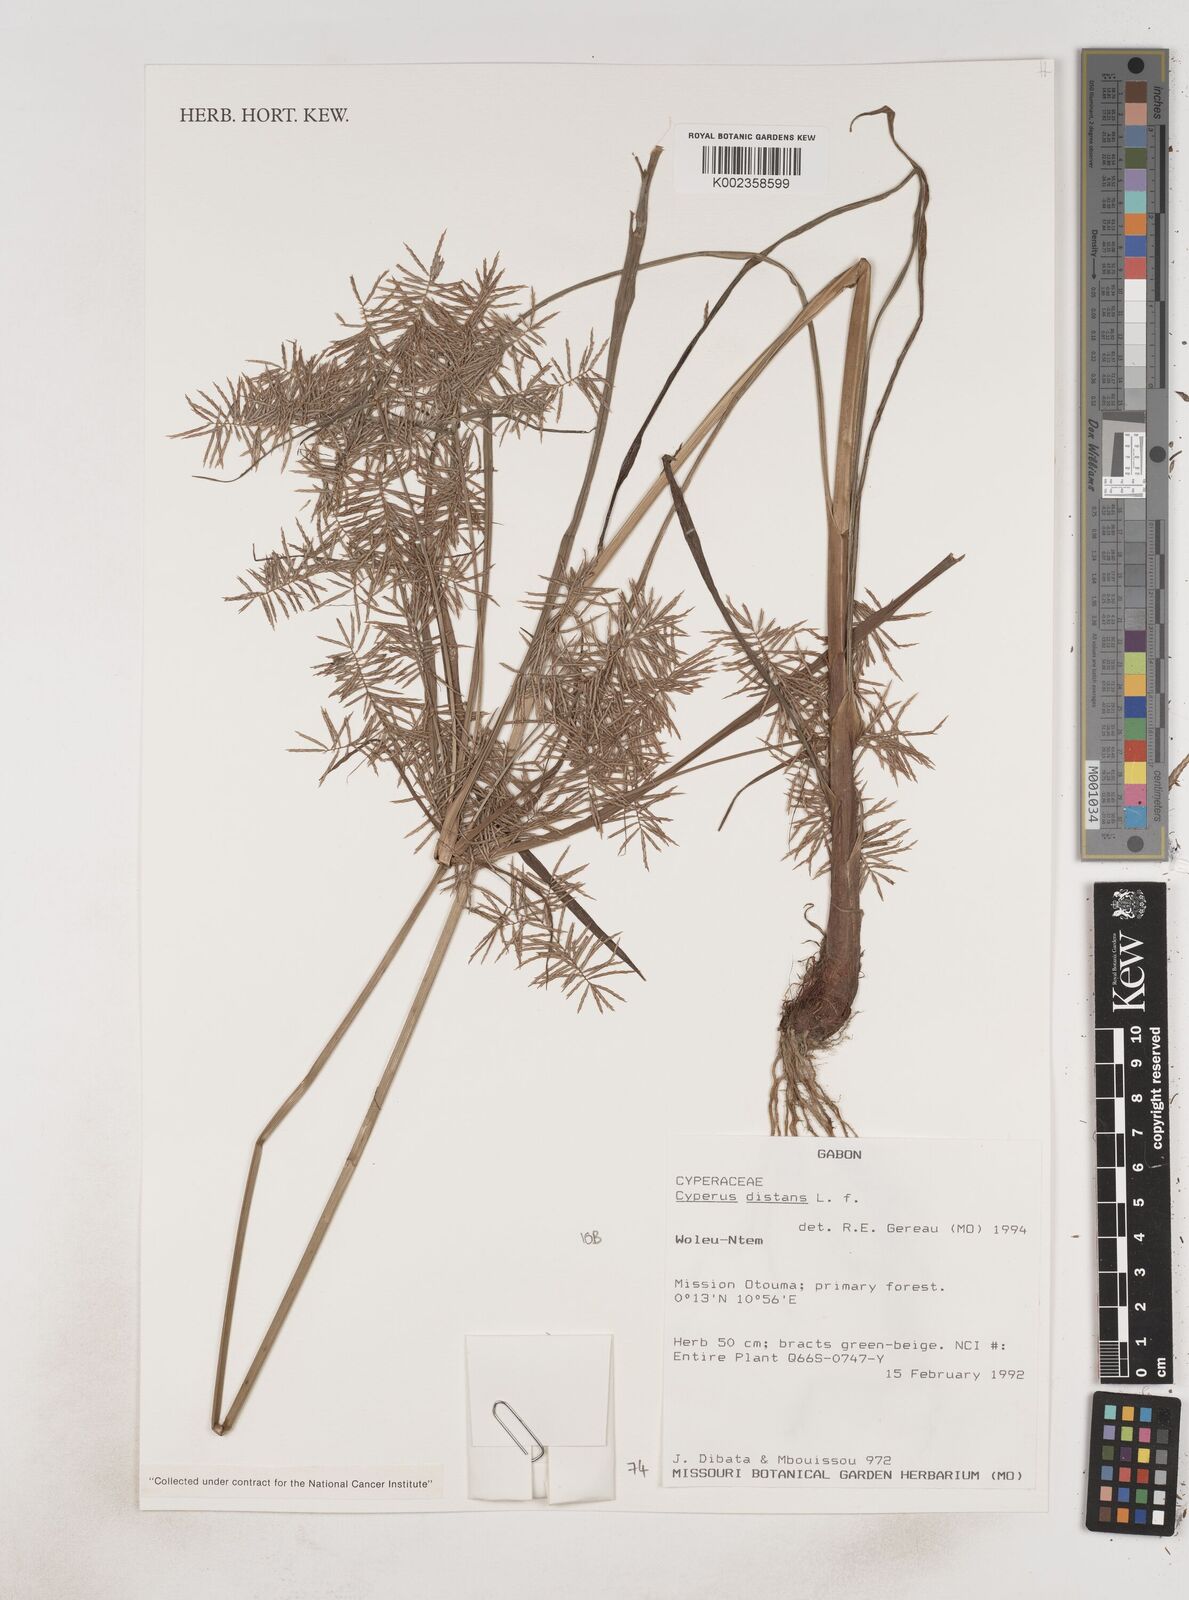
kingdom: Plantae
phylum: Tracheophyta
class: Liliopsida
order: Poales
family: Cyperaceae
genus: Cyperus
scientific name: Cyperus distans
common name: Slender cyperus
